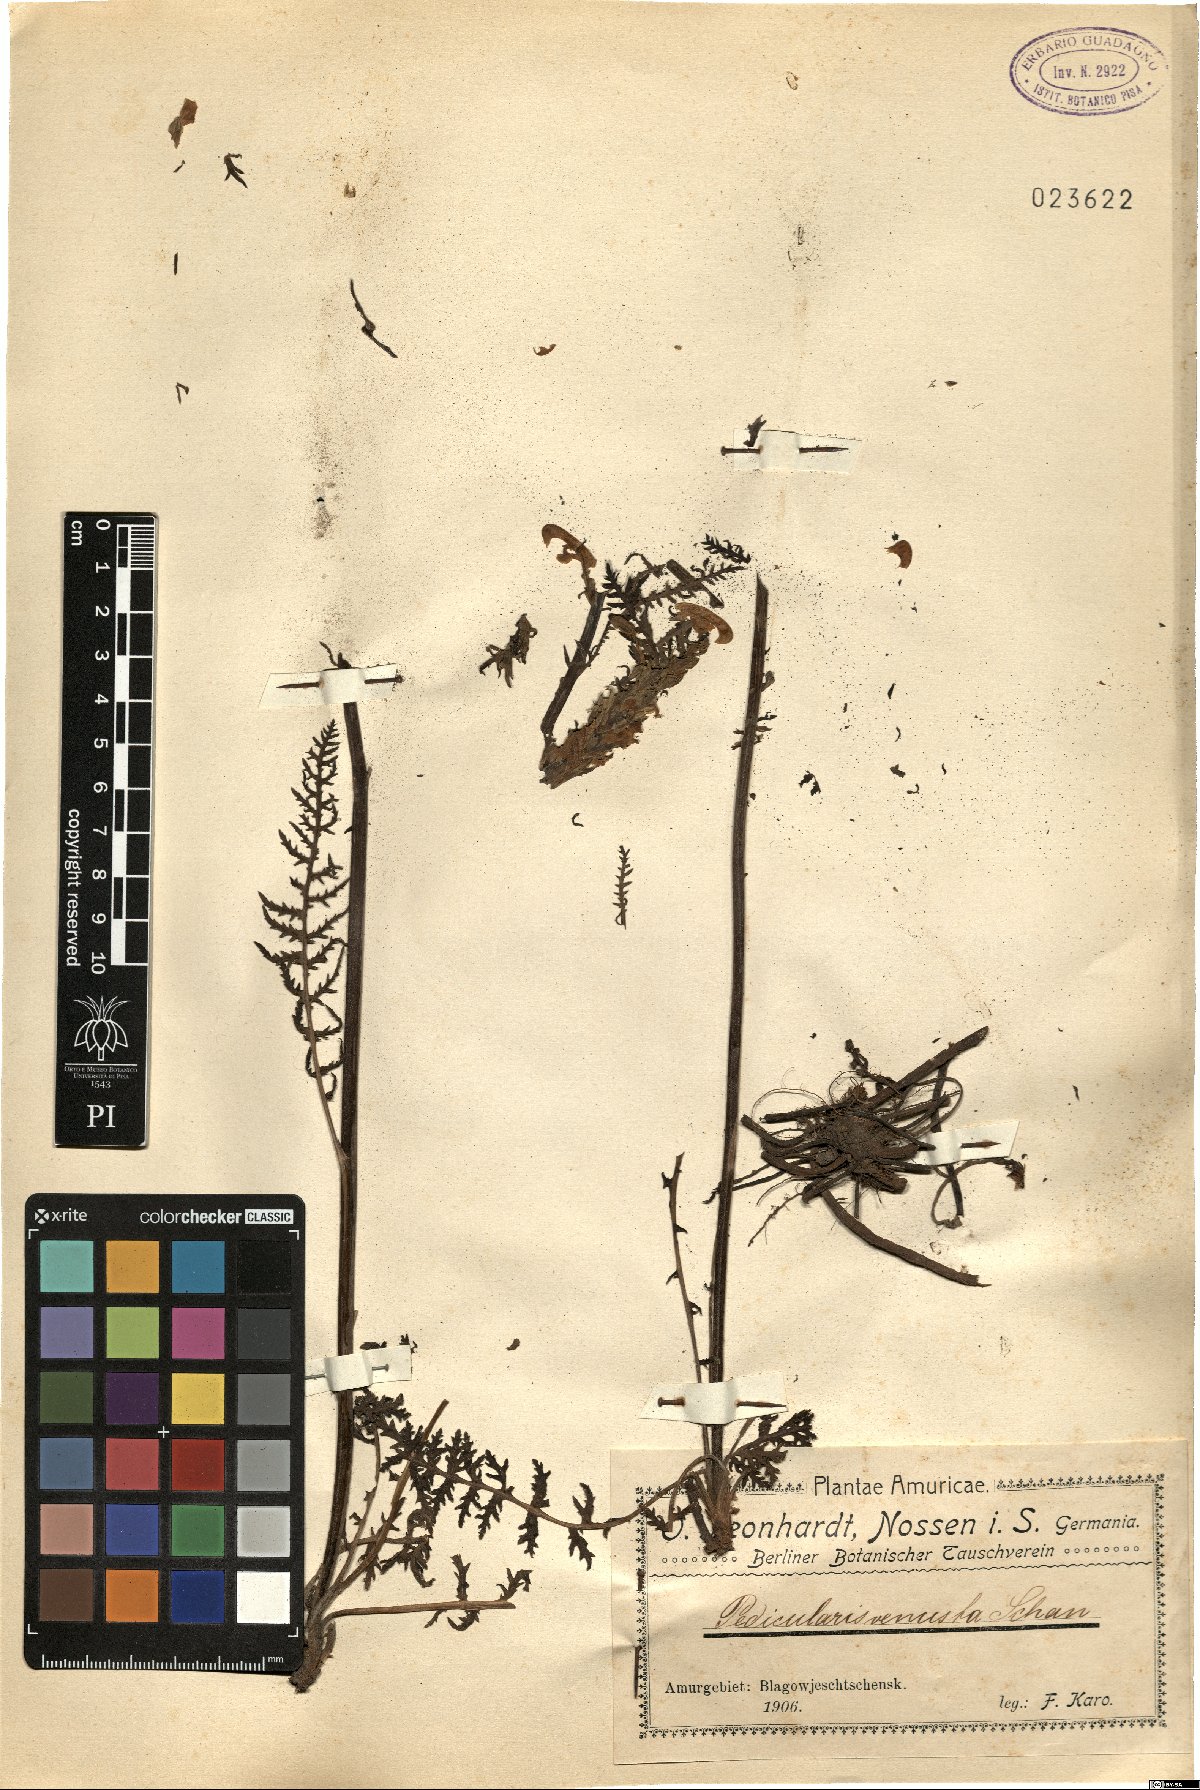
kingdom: Plantae
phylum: Tracheophyta
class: Magnoliopsida
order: Lamiales
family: Orobanchaceae
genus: Pedicularis
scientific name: Pedicularis venusta
